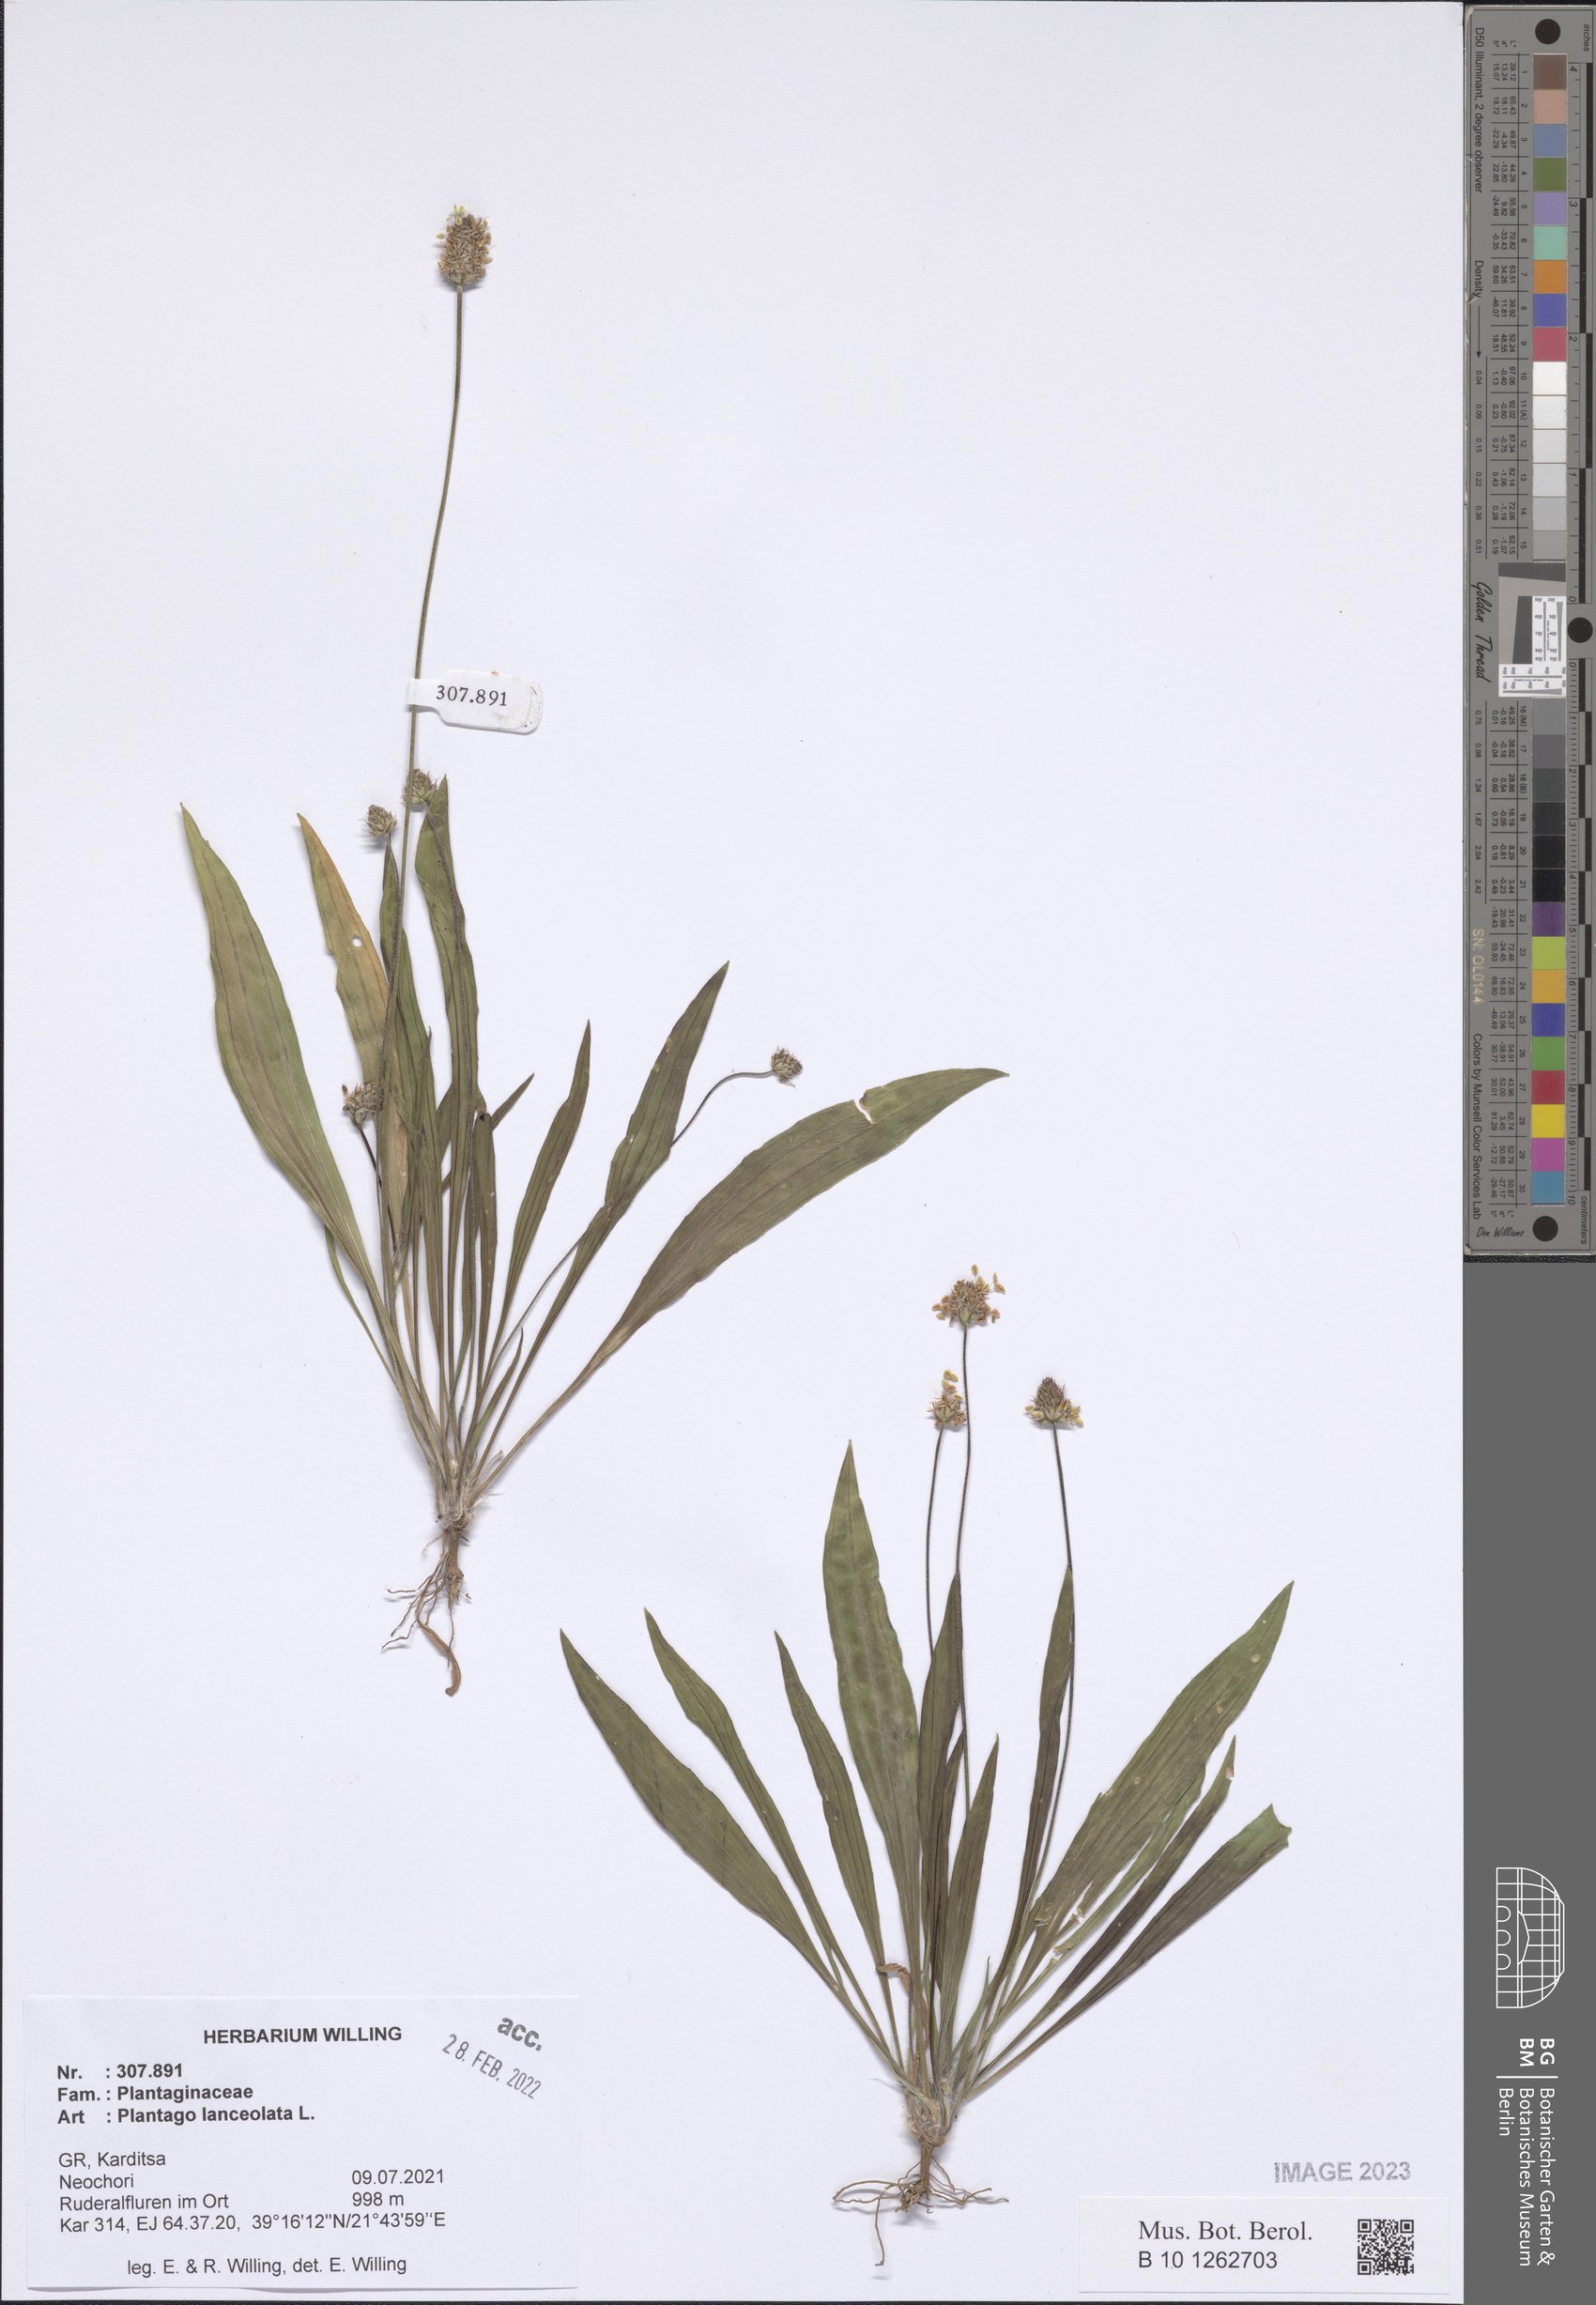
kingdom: Plantae
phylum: Tracheophyta
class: Magnoliopsida
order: Lamiales
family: Plantaginaceae
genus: Plantago
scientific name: Plantago lanceolata
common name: Ribwort plantain
